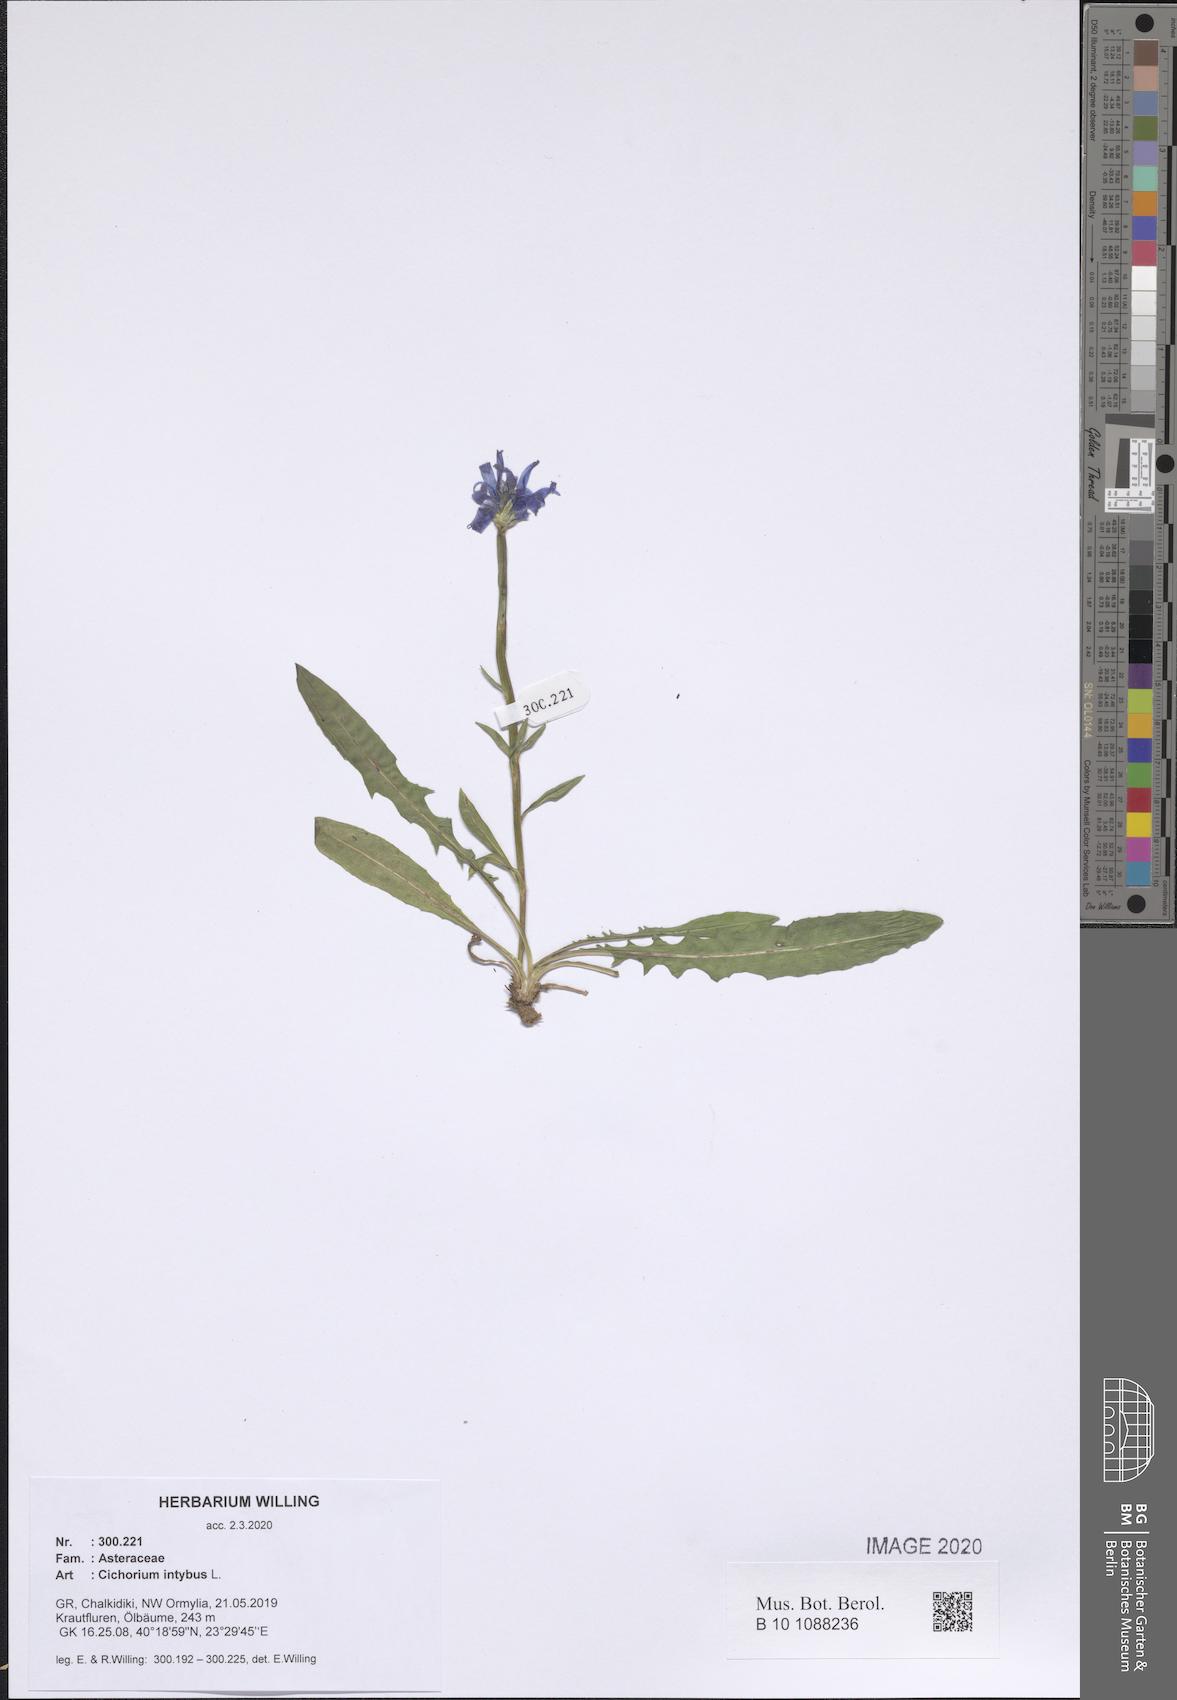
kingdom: Plantae
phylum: Tracheophyta
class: Magnoliopsida
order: Asterales
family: Asteraceae
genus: Cichorium
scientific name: Cichorium intybus
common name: Chicory
